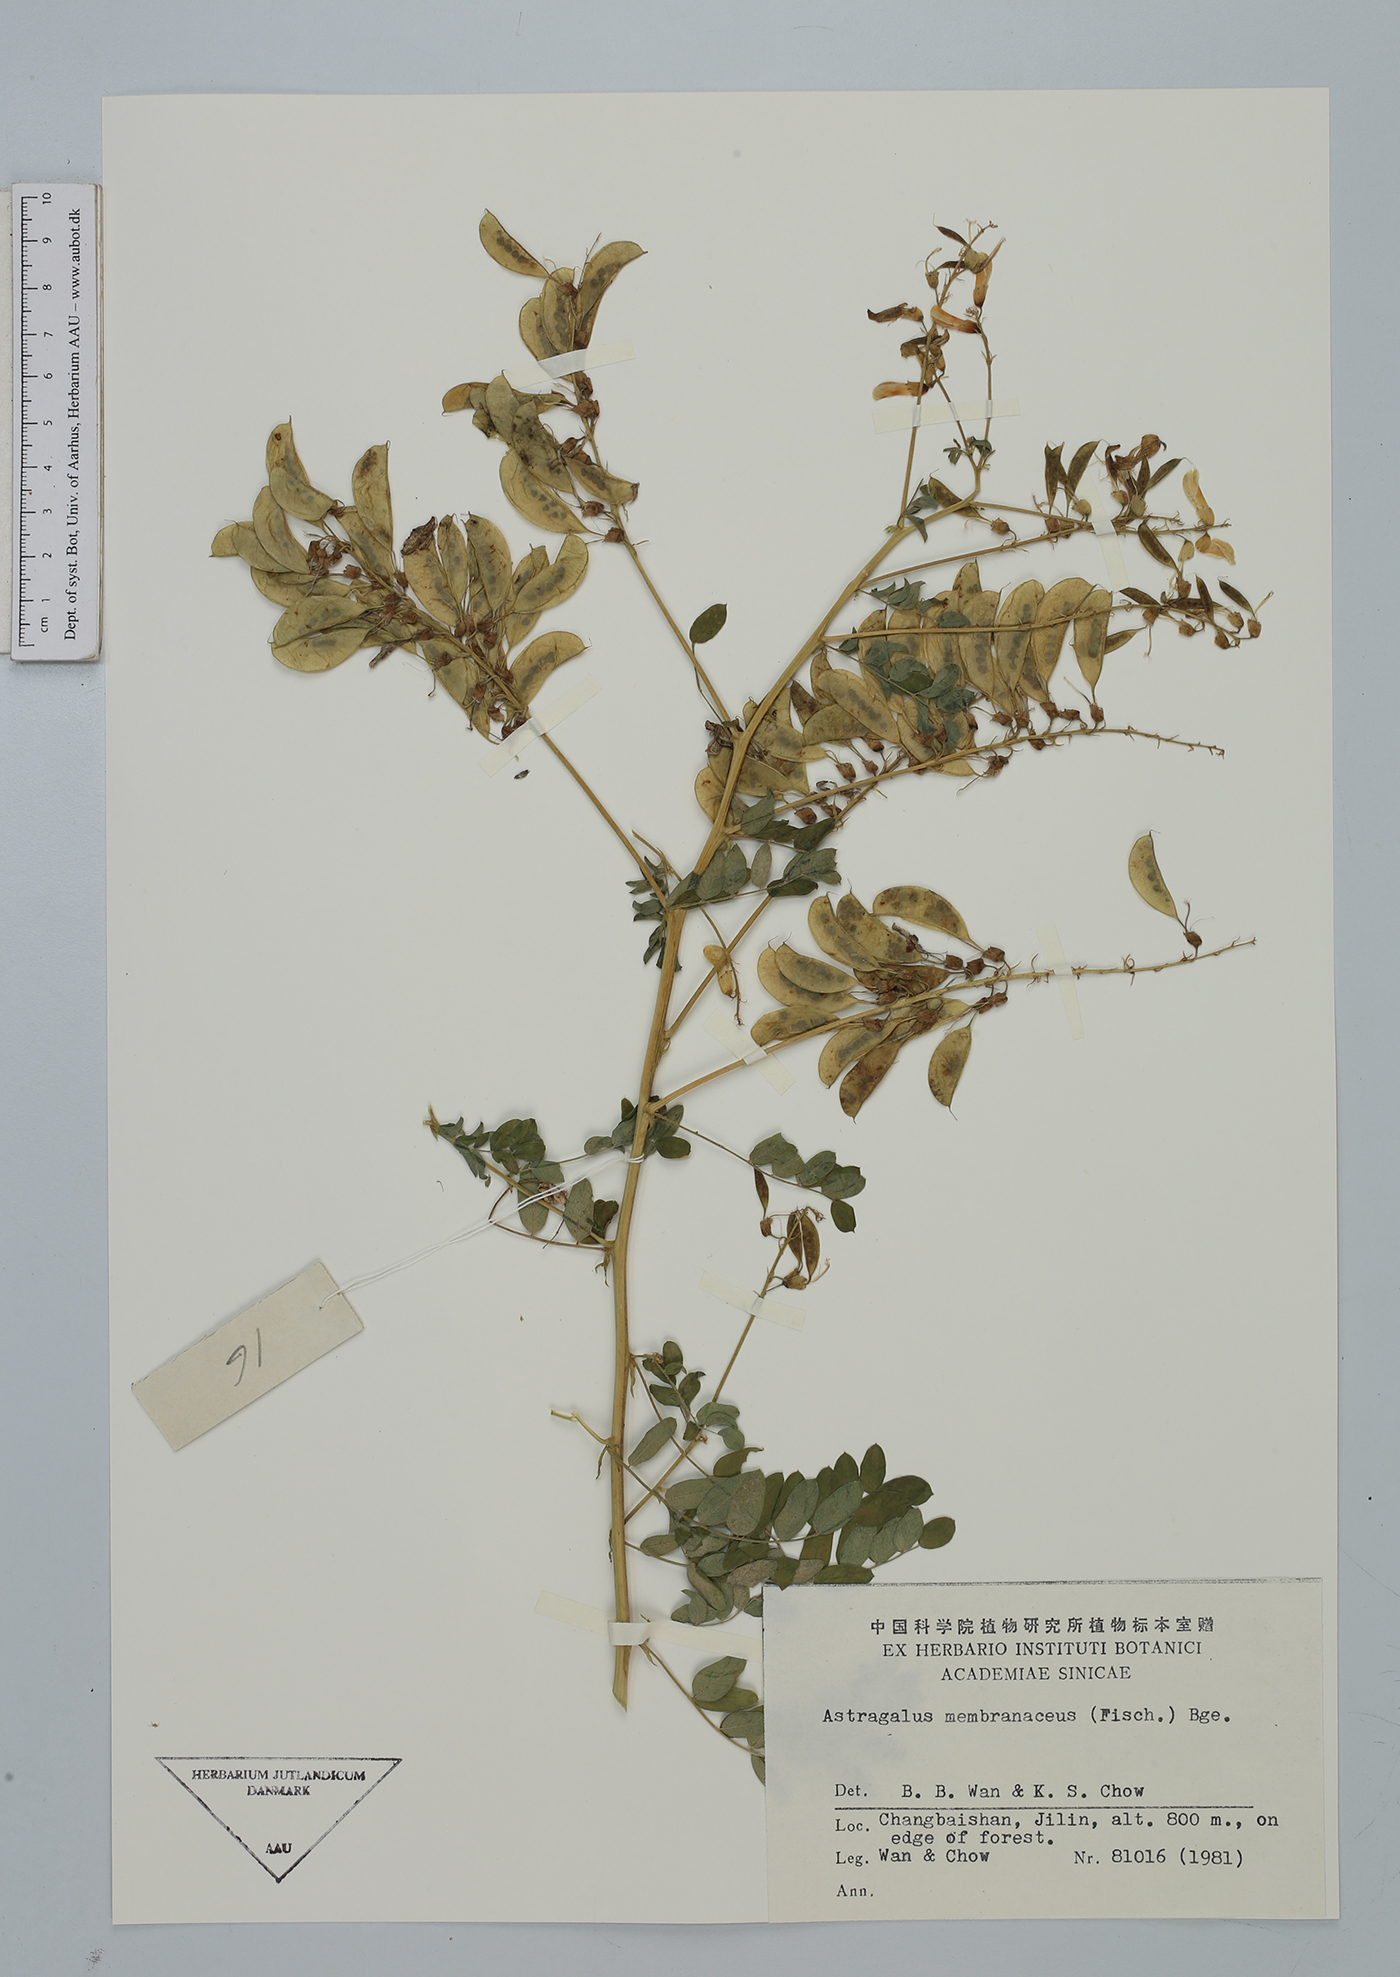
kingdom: Plantae
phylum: Tracheophyta
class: Magnoliopsida
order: Fabales
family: Fabaceae
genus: Astragalus
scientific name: Astragalus mongholicus
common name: Membranous milk-vetch
